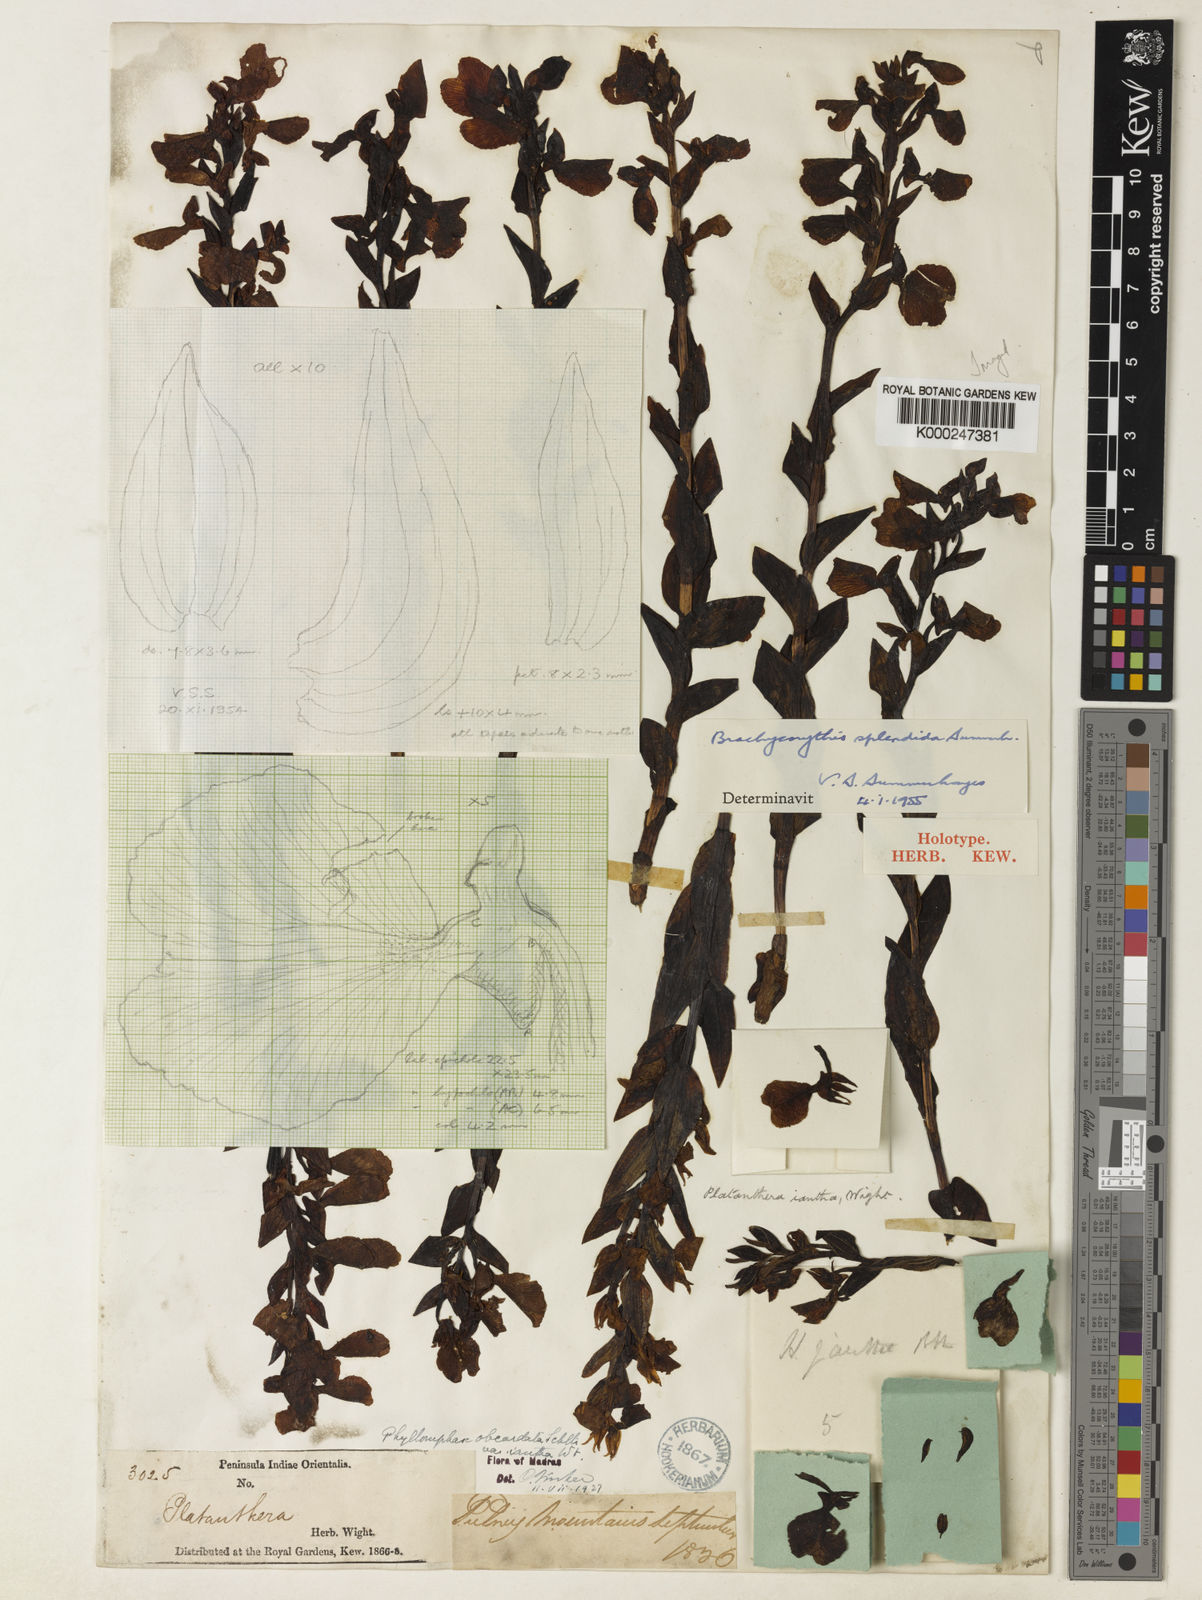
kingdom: Plantae
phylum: Tracheophyta
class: Liliopsida
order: Asparagales
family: Orchidaceae
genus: Brachycorythis
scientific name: Brachycorythis splendida
